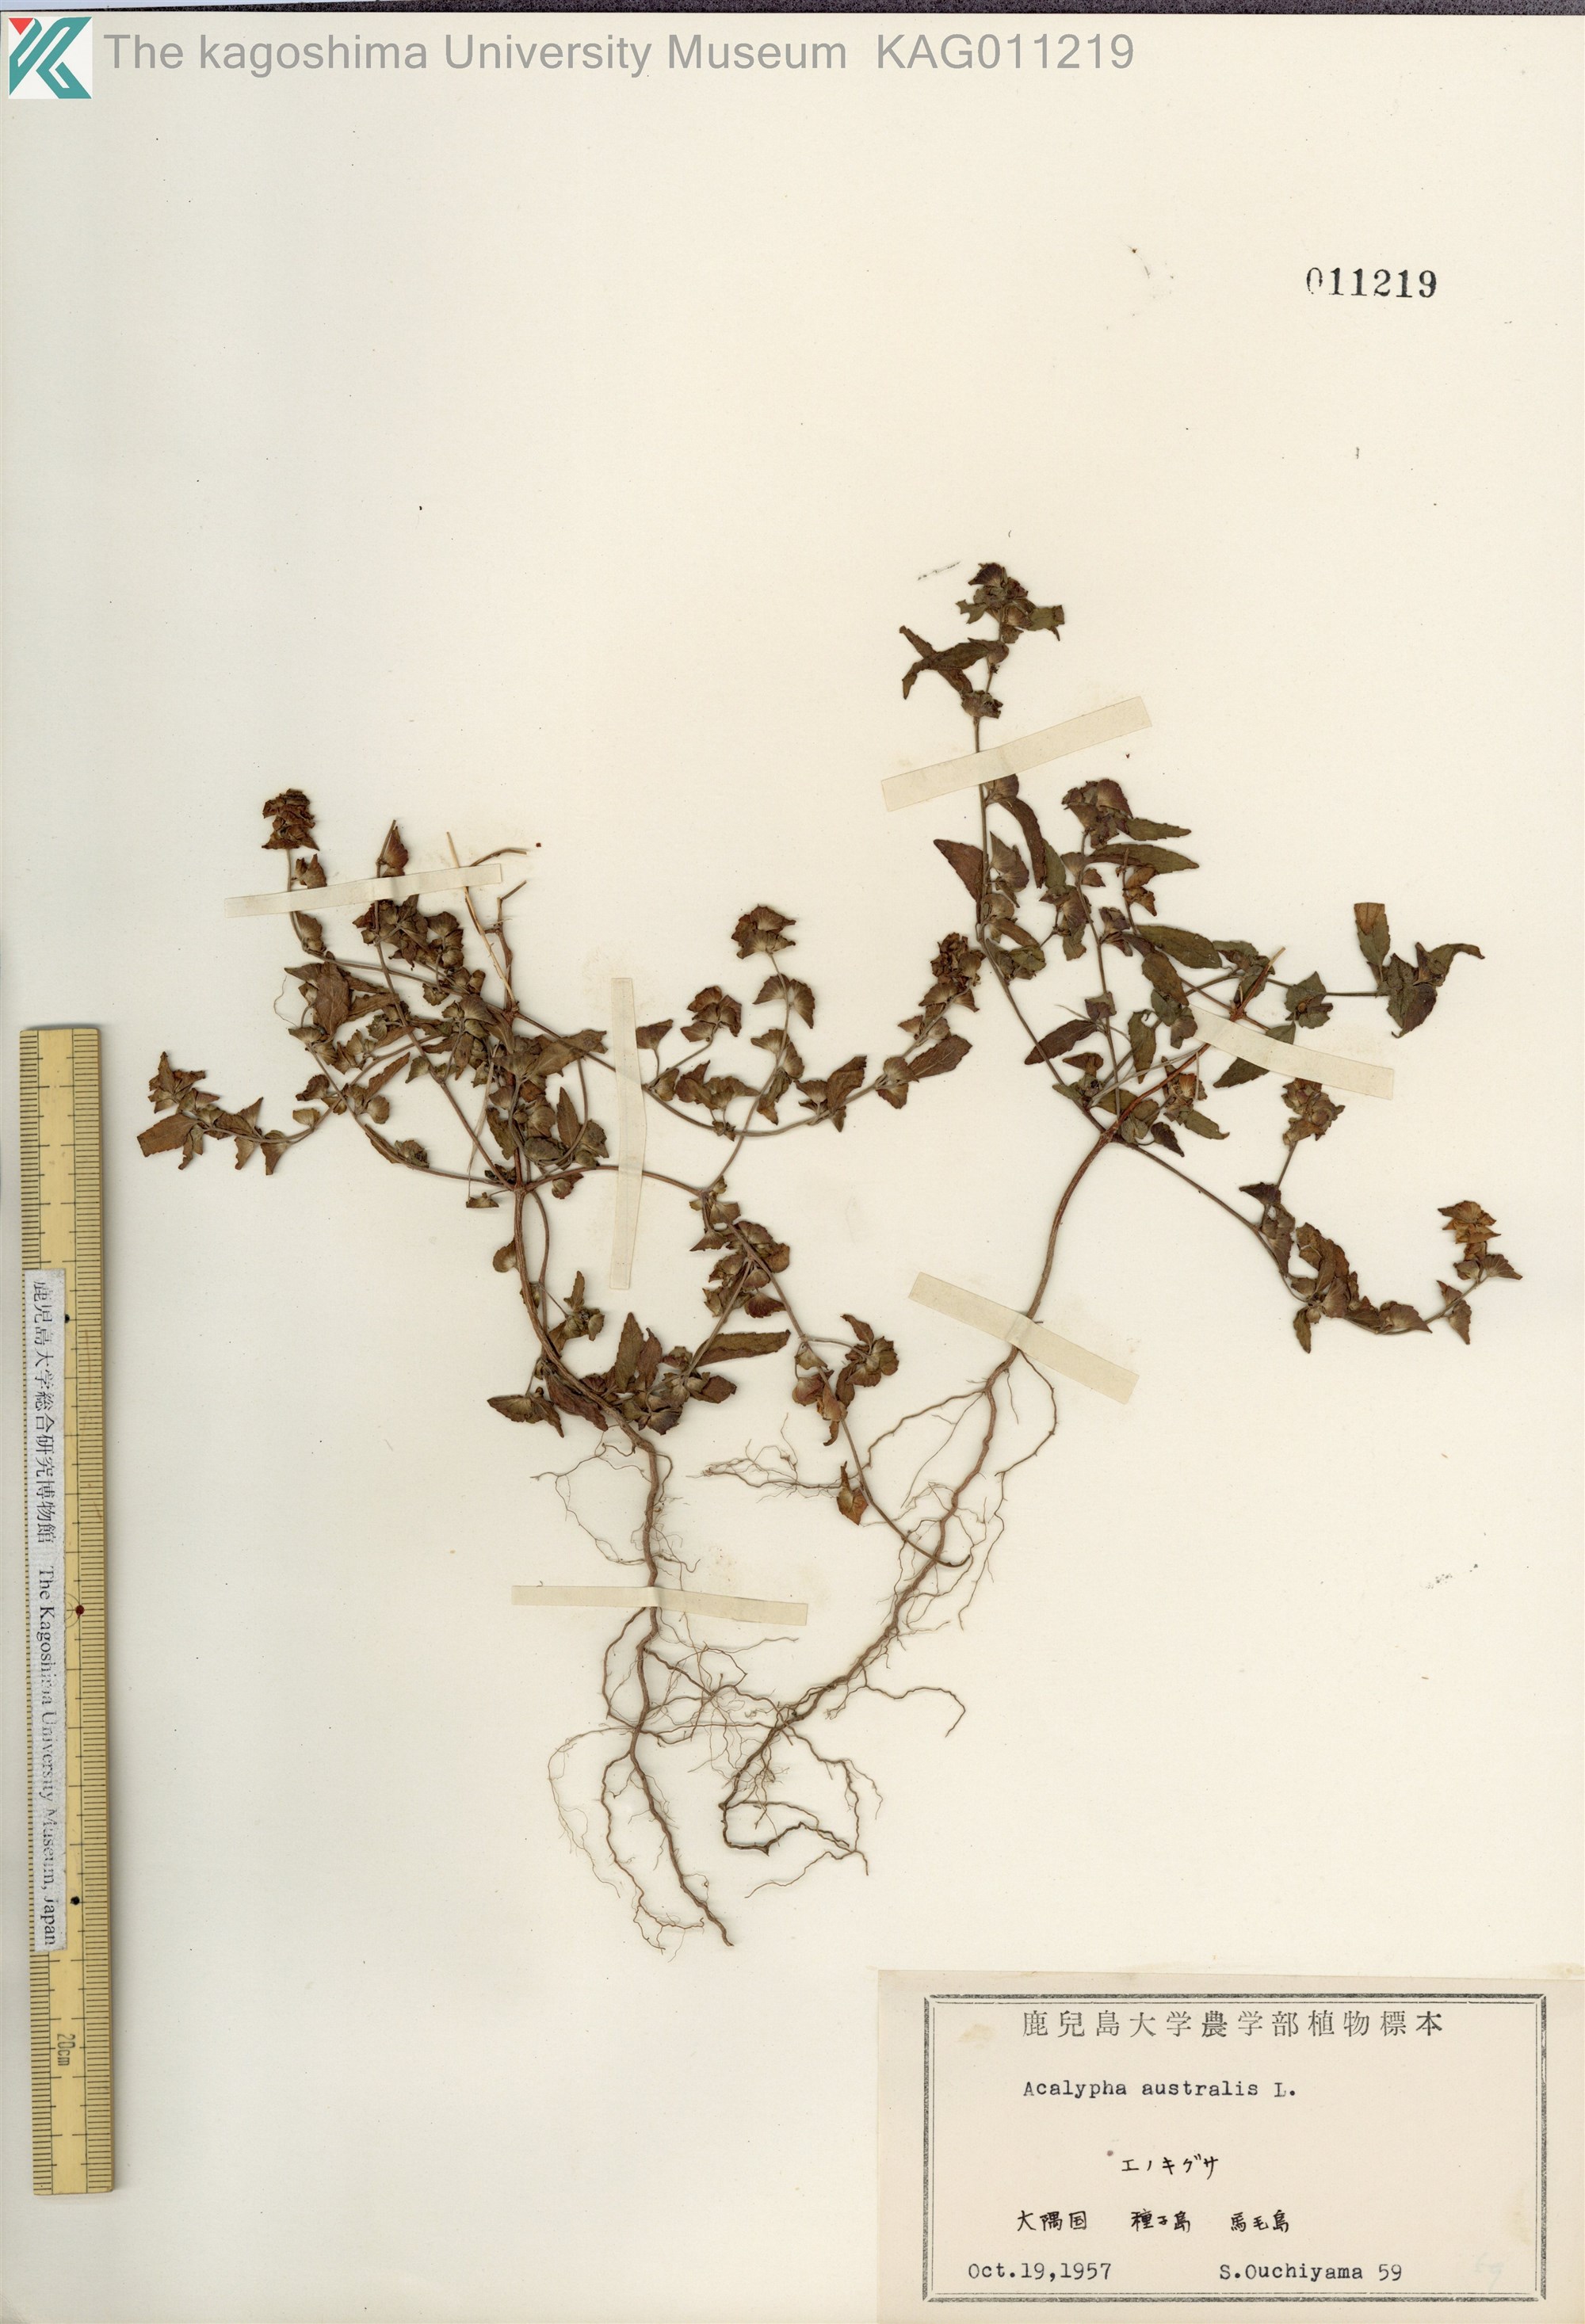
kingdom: Plantae
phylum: Tracheophyta
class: Magnoliopsida
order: Malpighiales
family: Euphorbiaceae
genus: Acalypha
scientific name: Acalypha australis
